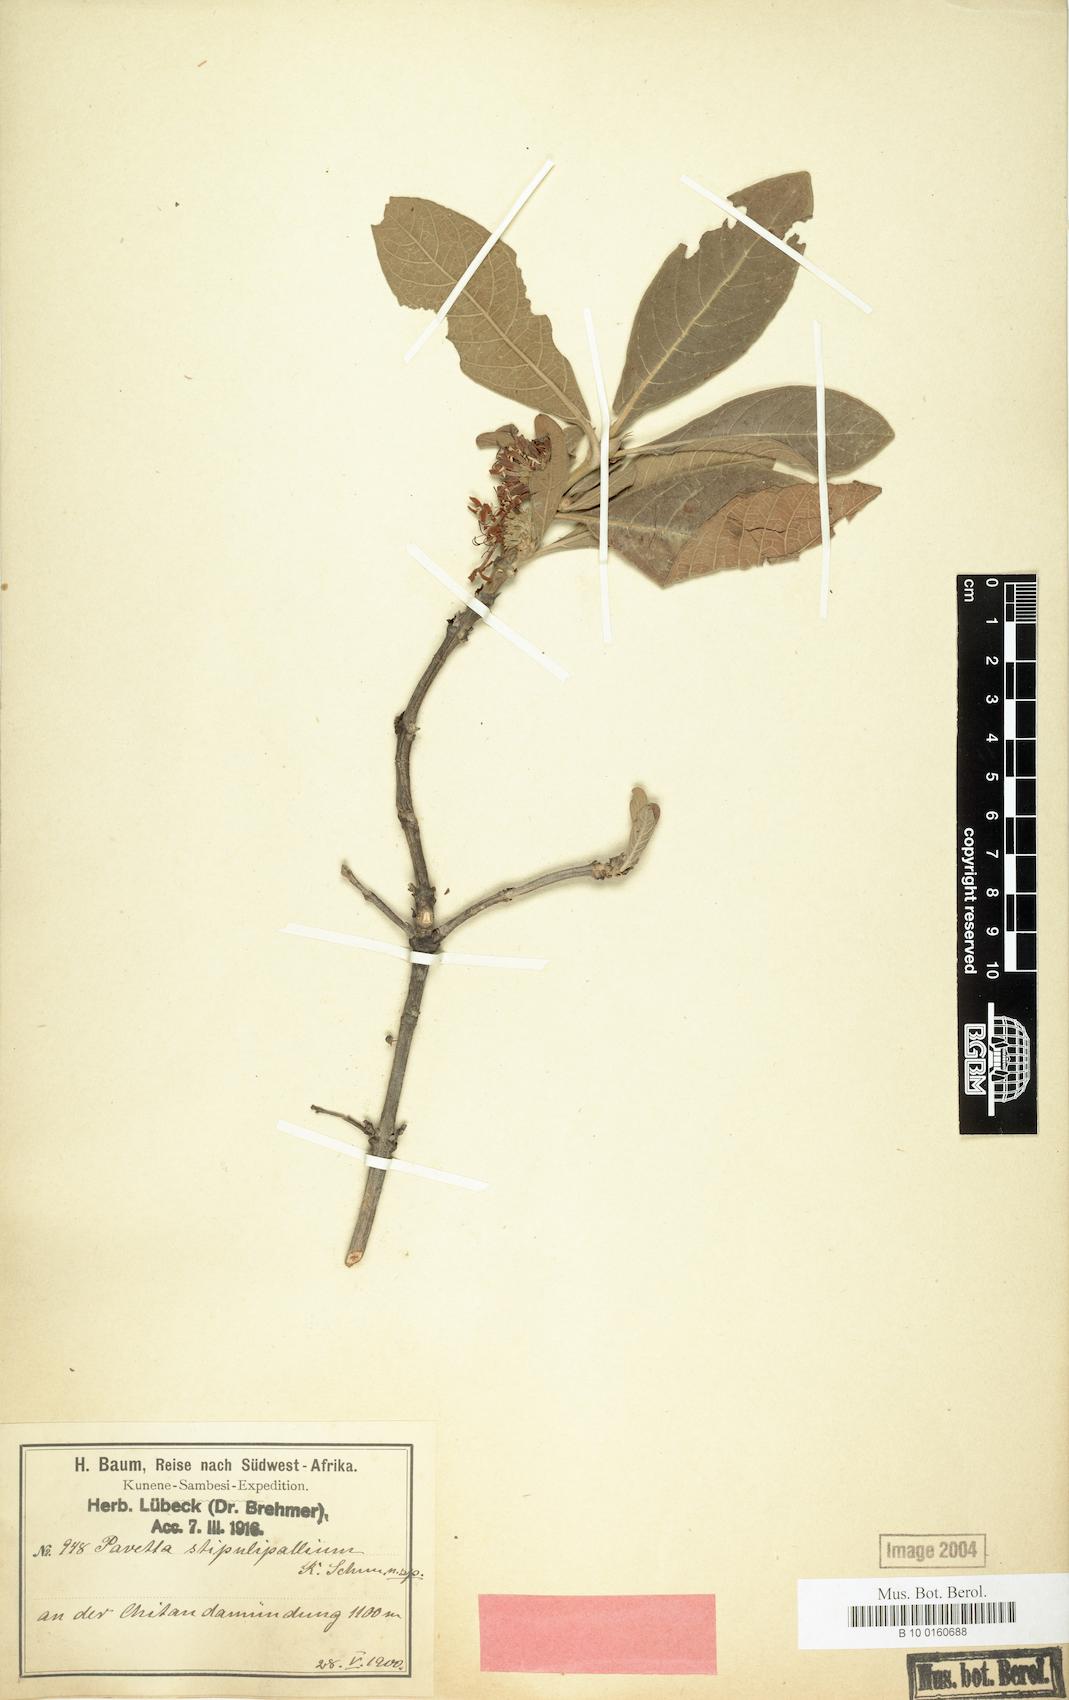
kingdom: Plantae
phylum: Tracheophyta
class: Magnoliopsida
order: Gentianales
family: Rubiaceae
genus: Pavetta
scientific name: Pavetta stipulopallium
